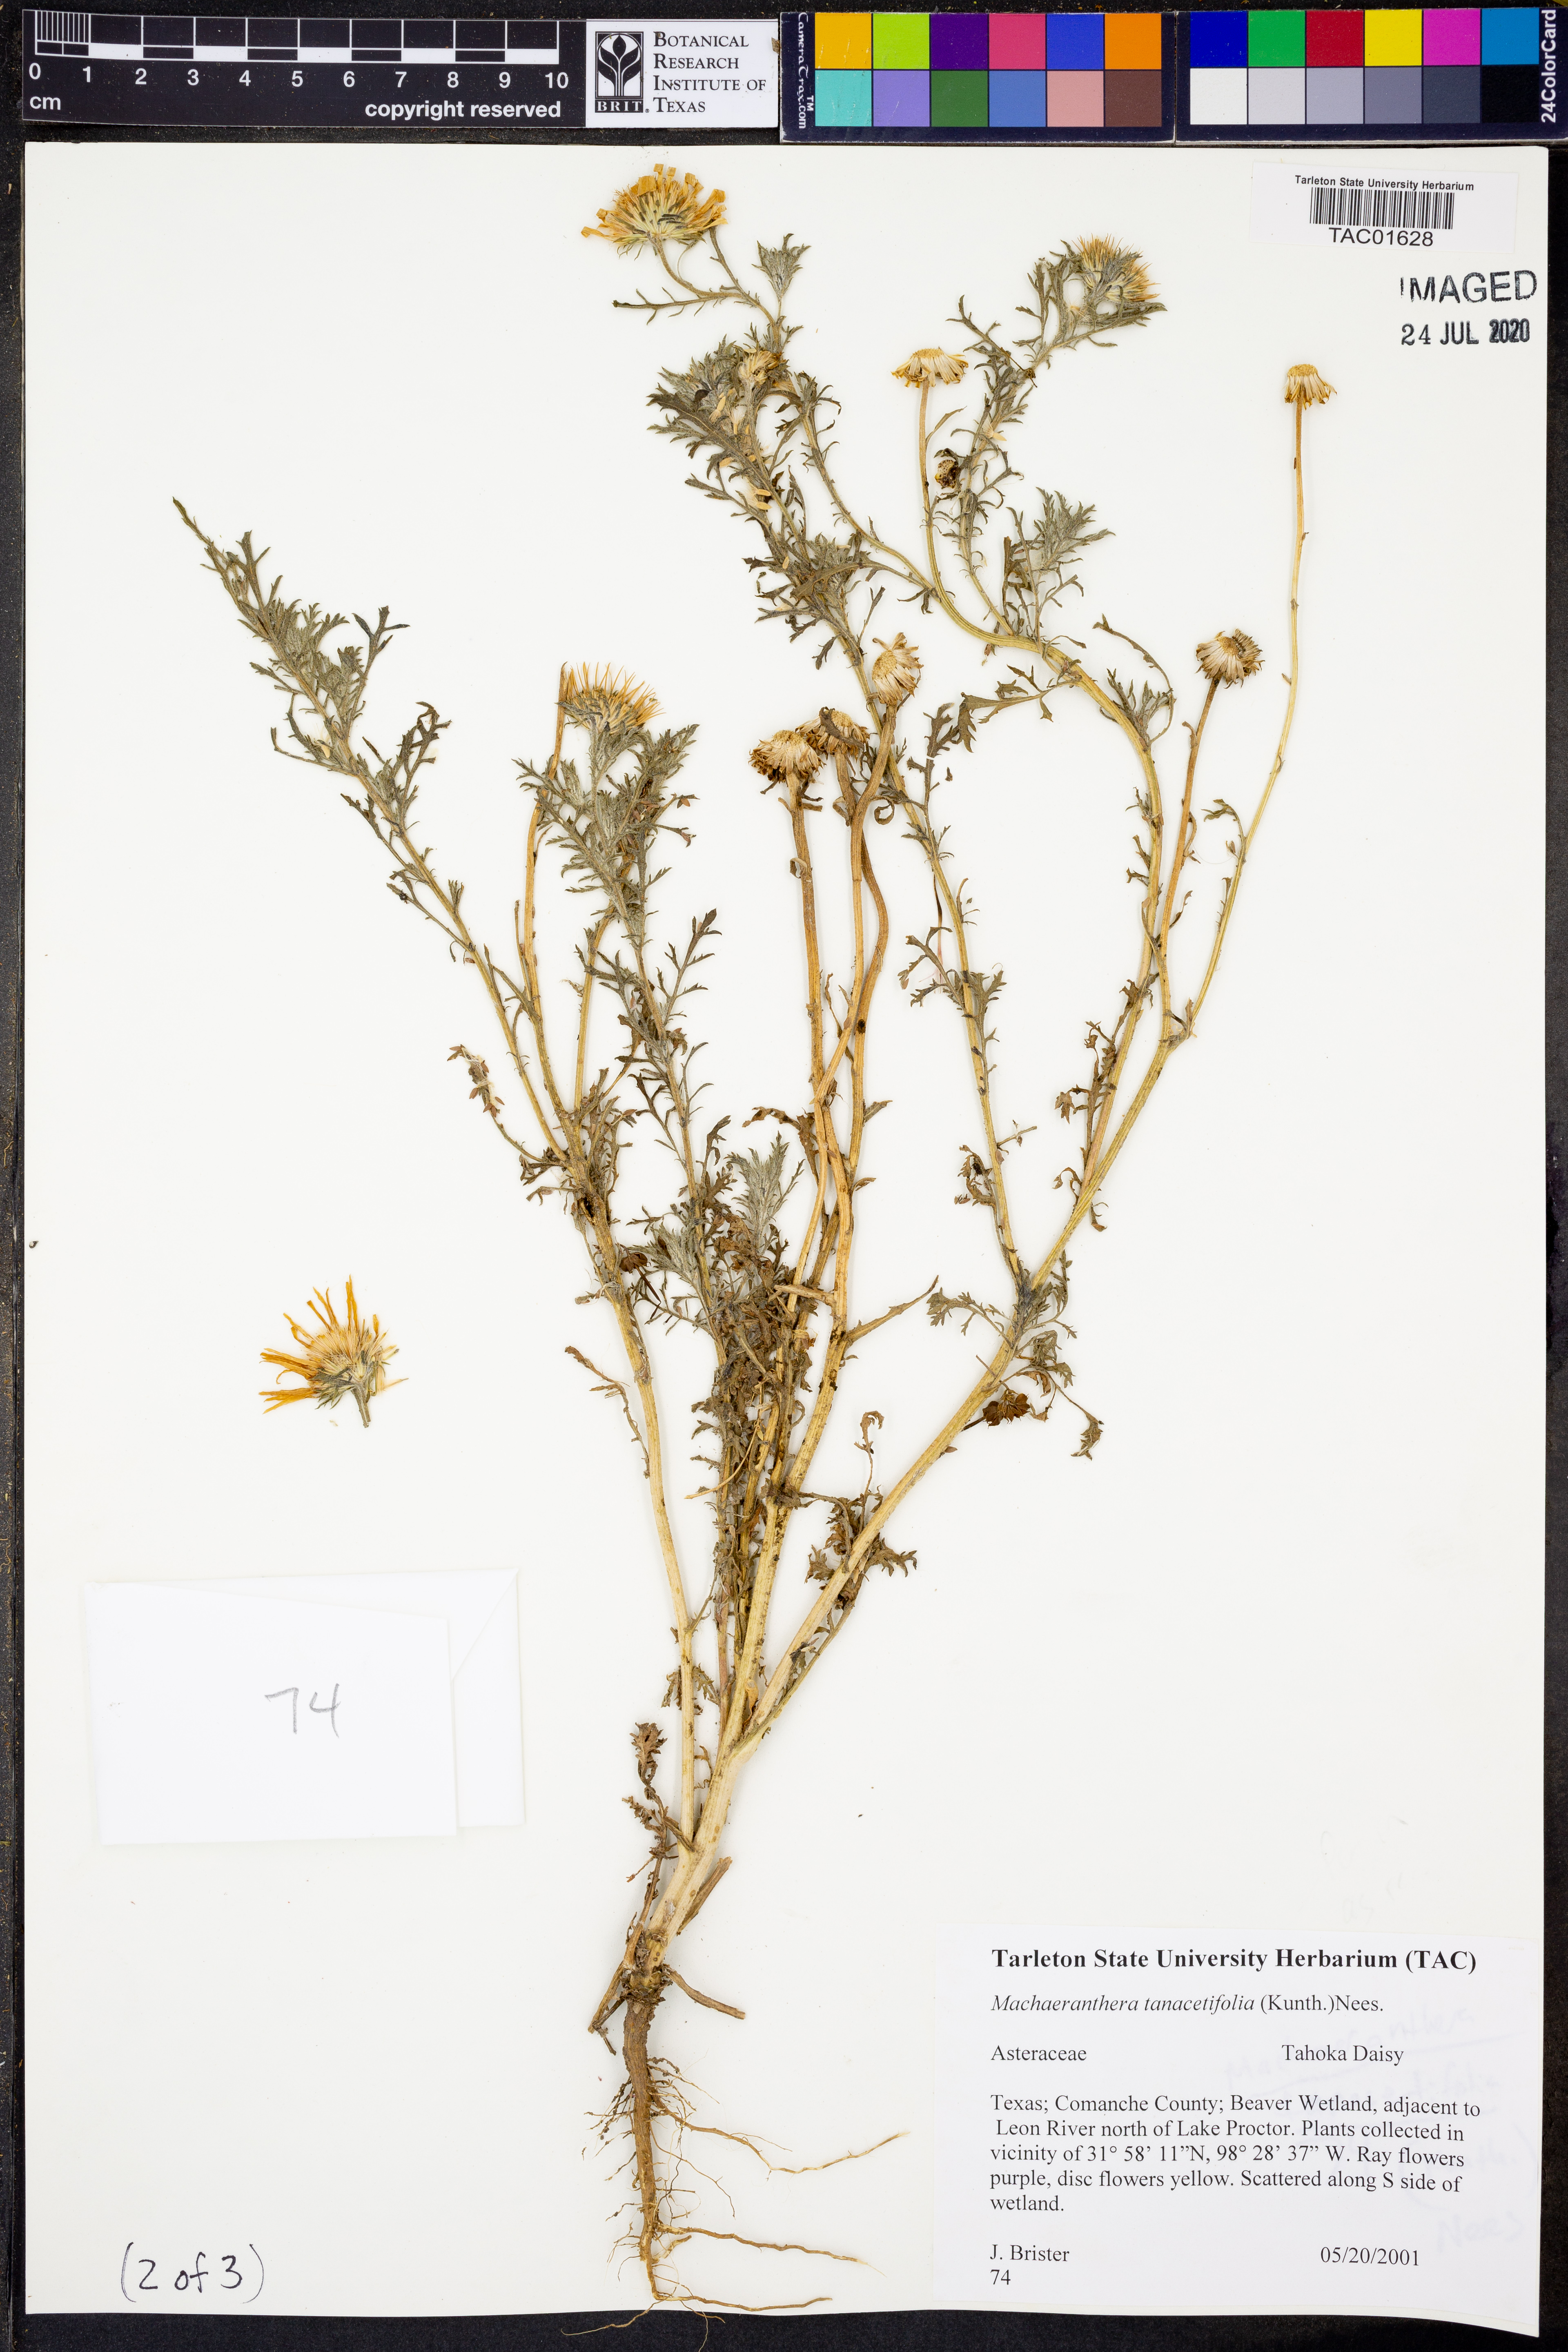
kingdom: Plantae
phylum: Tracheophyta
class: Magnoliopsida
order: Asterales
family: Asteraceae
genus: Machaeranthera
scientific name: Machaeranthera tanacetifolia
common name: Tansy-aster
